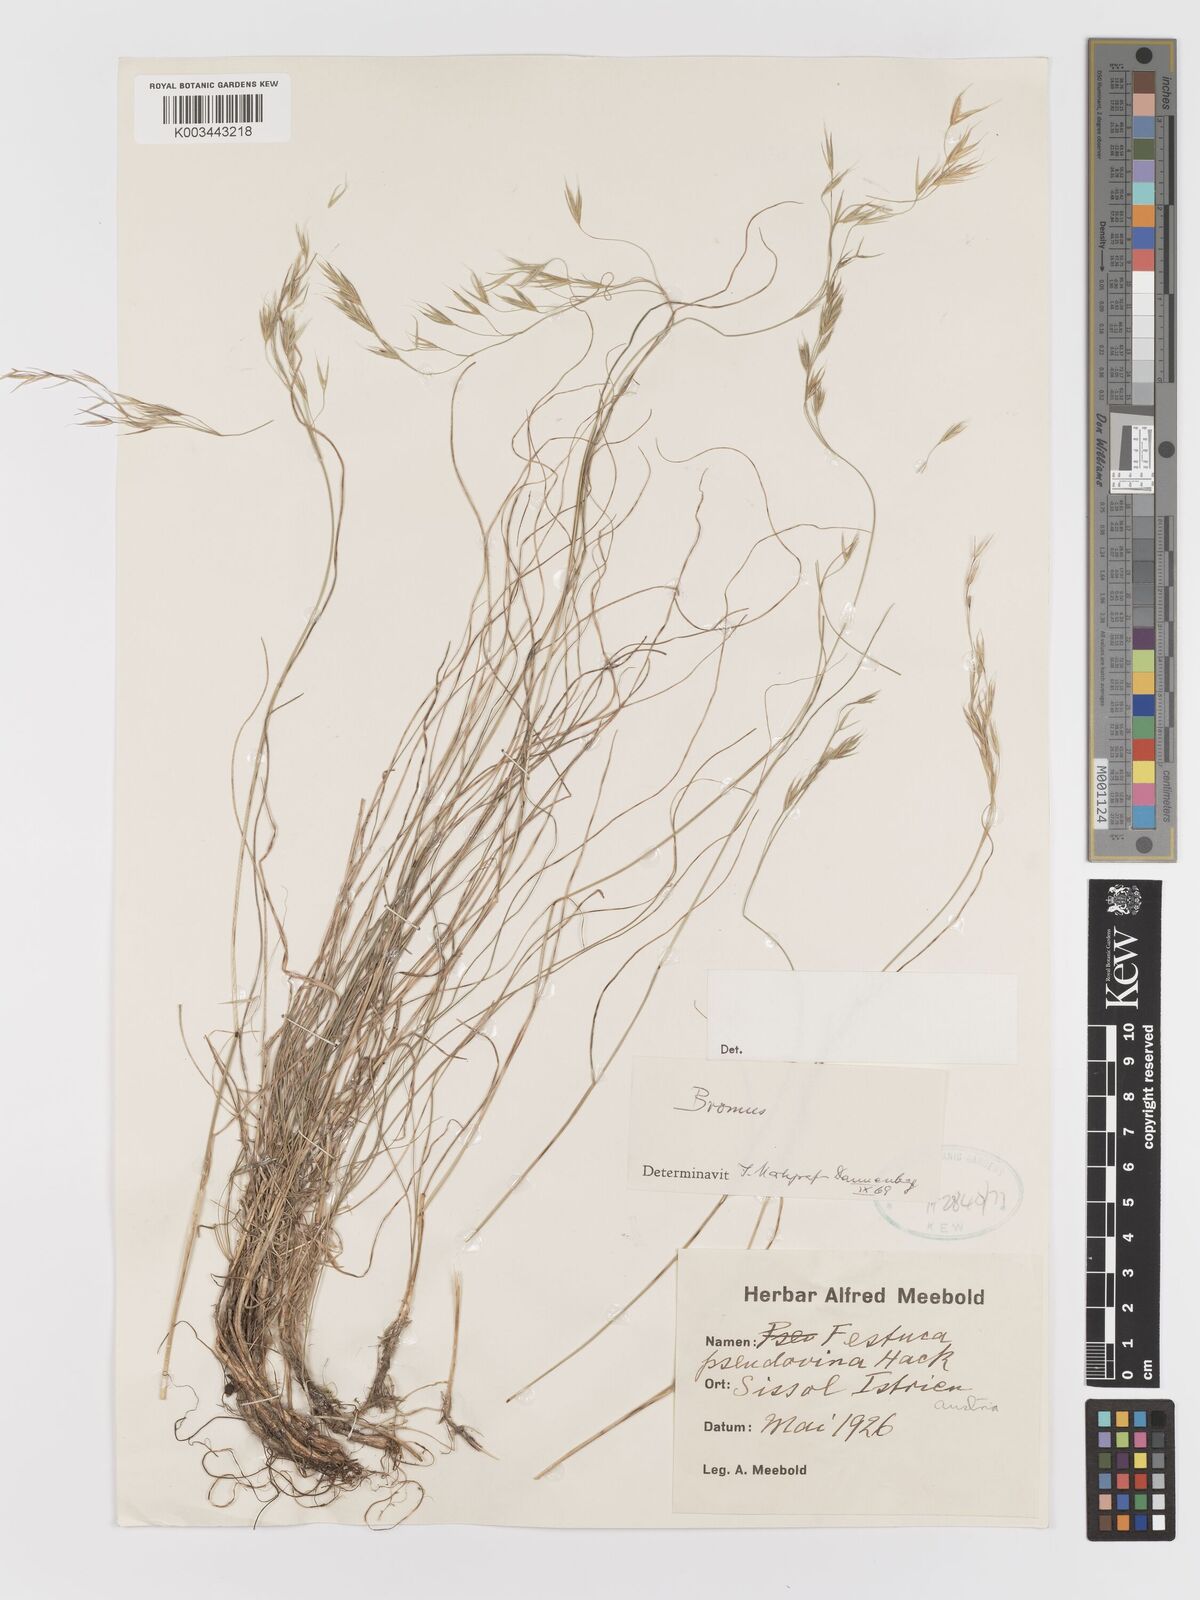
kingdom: Plantae
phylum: Tracheophyta
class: Liliopsida
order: Poales
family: Poaceae
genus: Bromus
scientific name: Bromus
